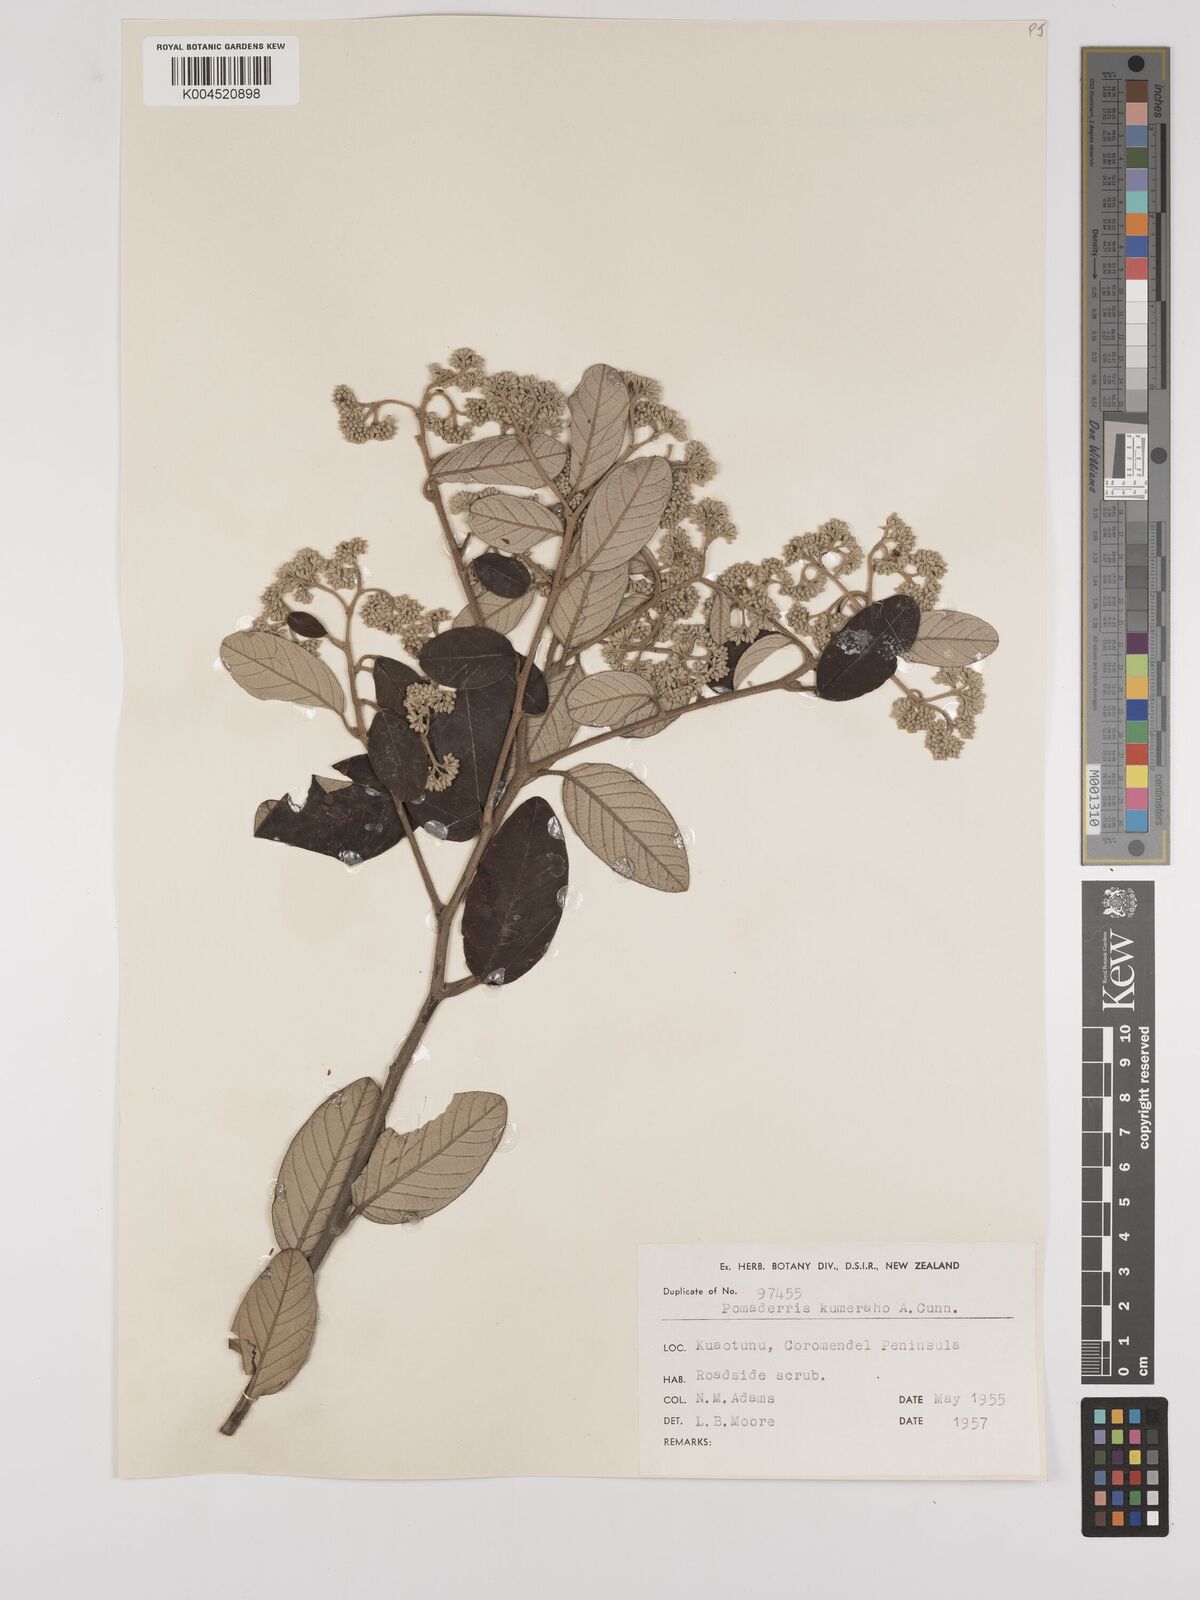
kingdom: Plantae
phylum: Tracheophyta
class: Magnoliopsida
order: Rosales
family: Rhamnaceae
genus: Pomaderris
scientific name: Pomaderris kumeraho
